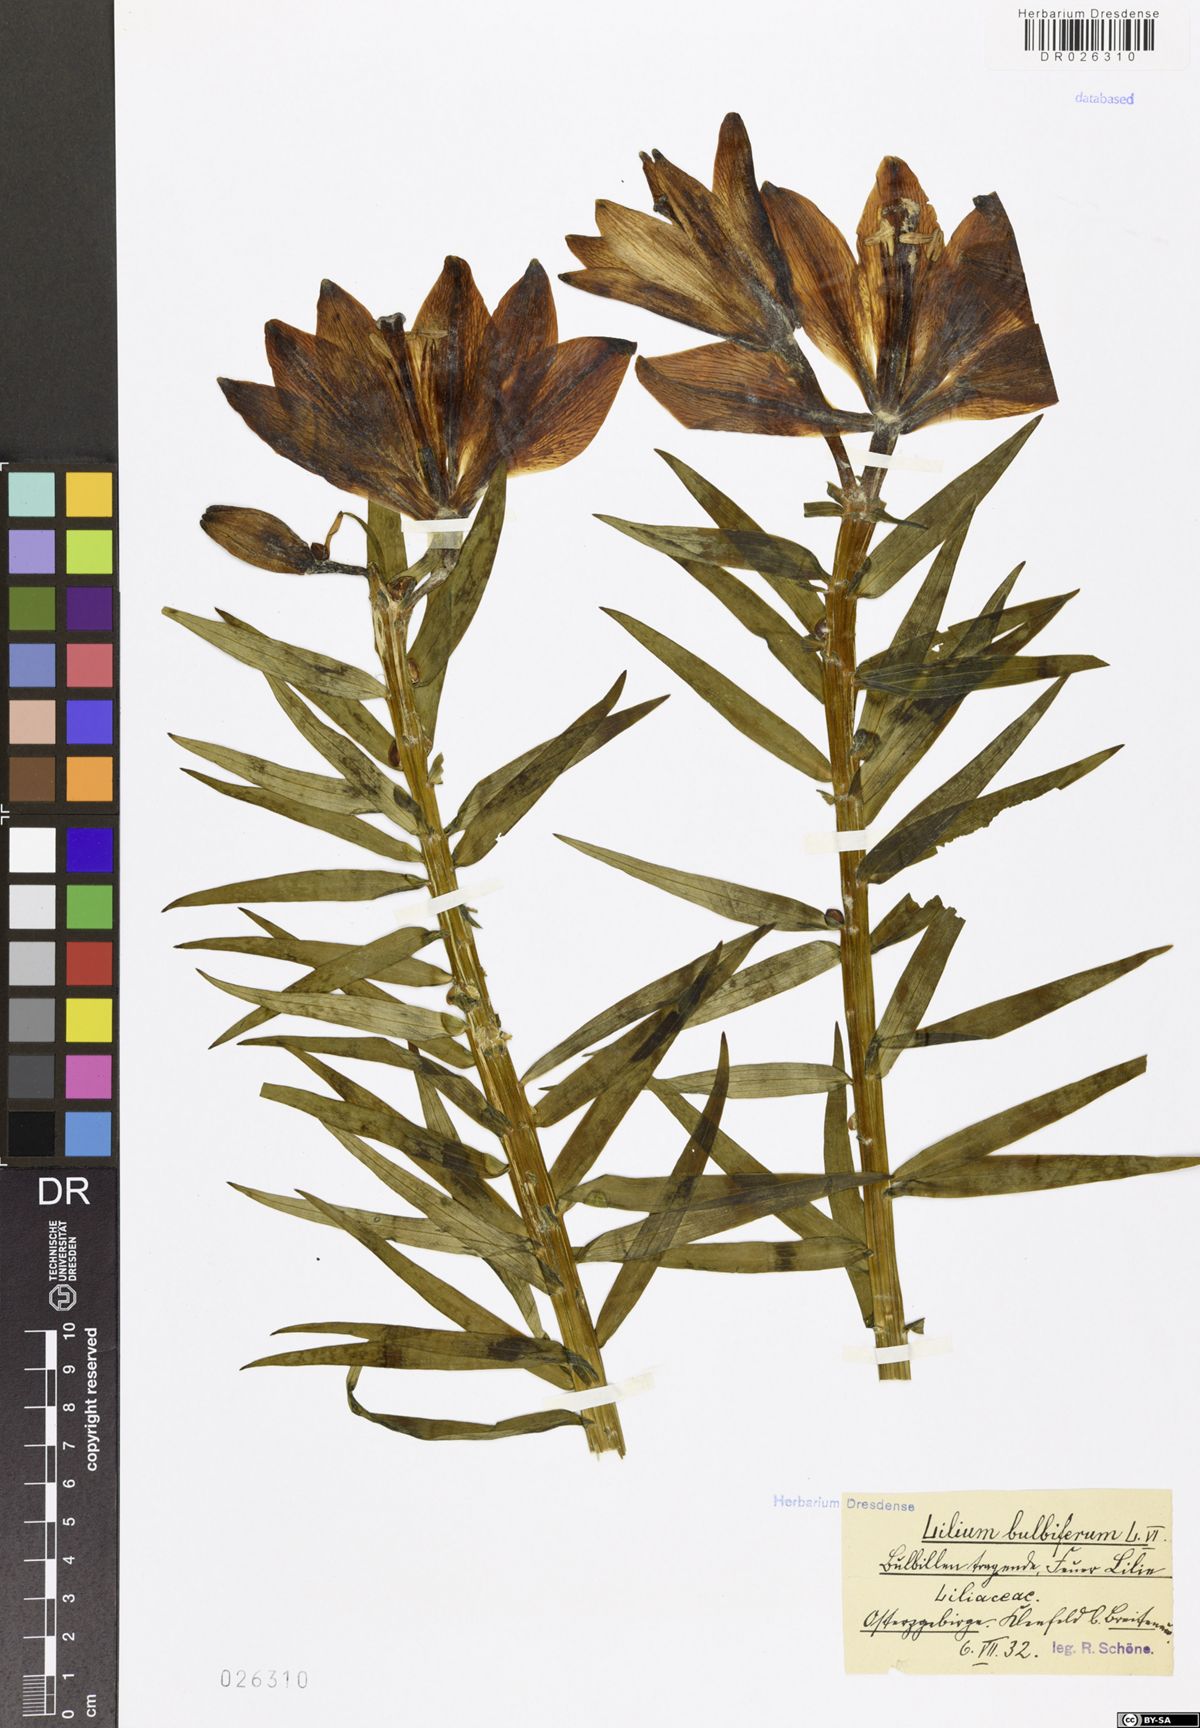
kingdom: Plantae
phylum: Tracheophyta
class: Liliopsida
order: Liliales
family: Liliaceae
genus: Lilium
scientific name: Lilium bulbiferum
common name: Orange lily
